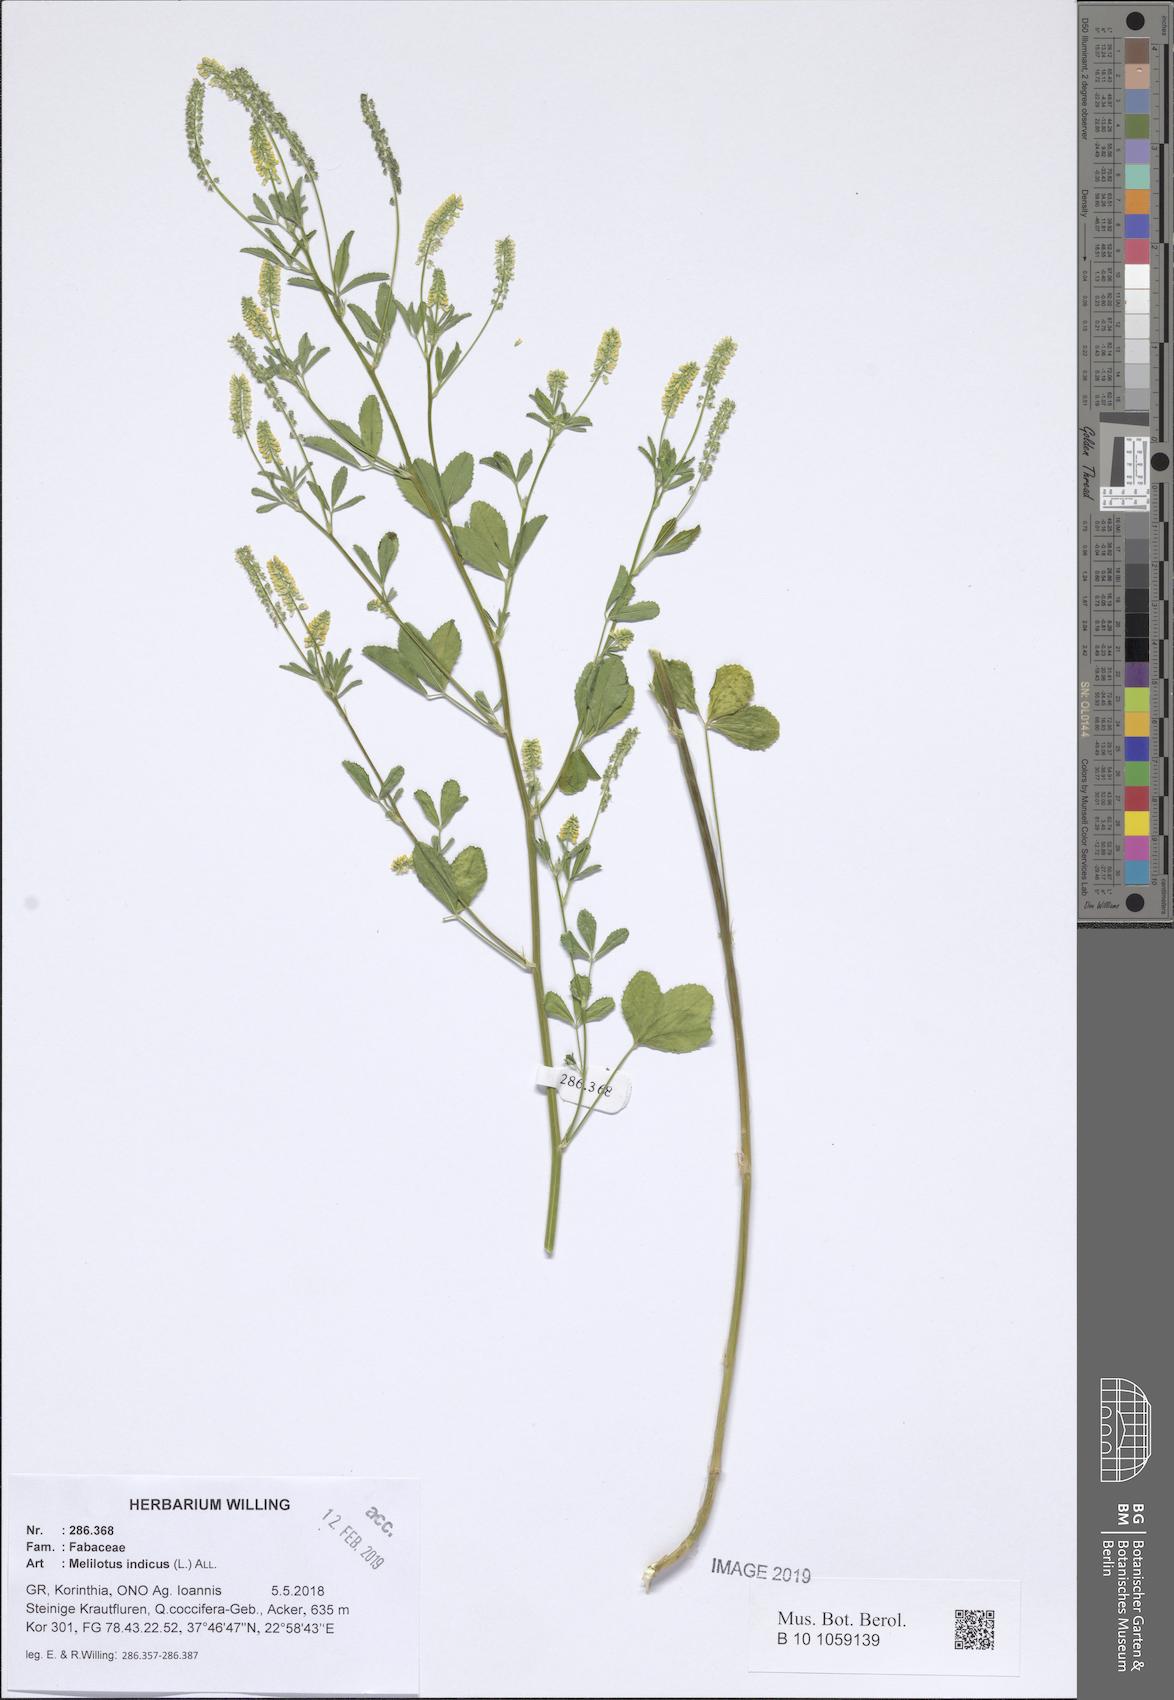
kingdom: Plantae
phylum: Tracheophyta
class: Magnoliopsida
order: Fabales
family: Fabaceae
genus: Melilotus
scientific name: Melilotus indicus
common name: Small melilot
